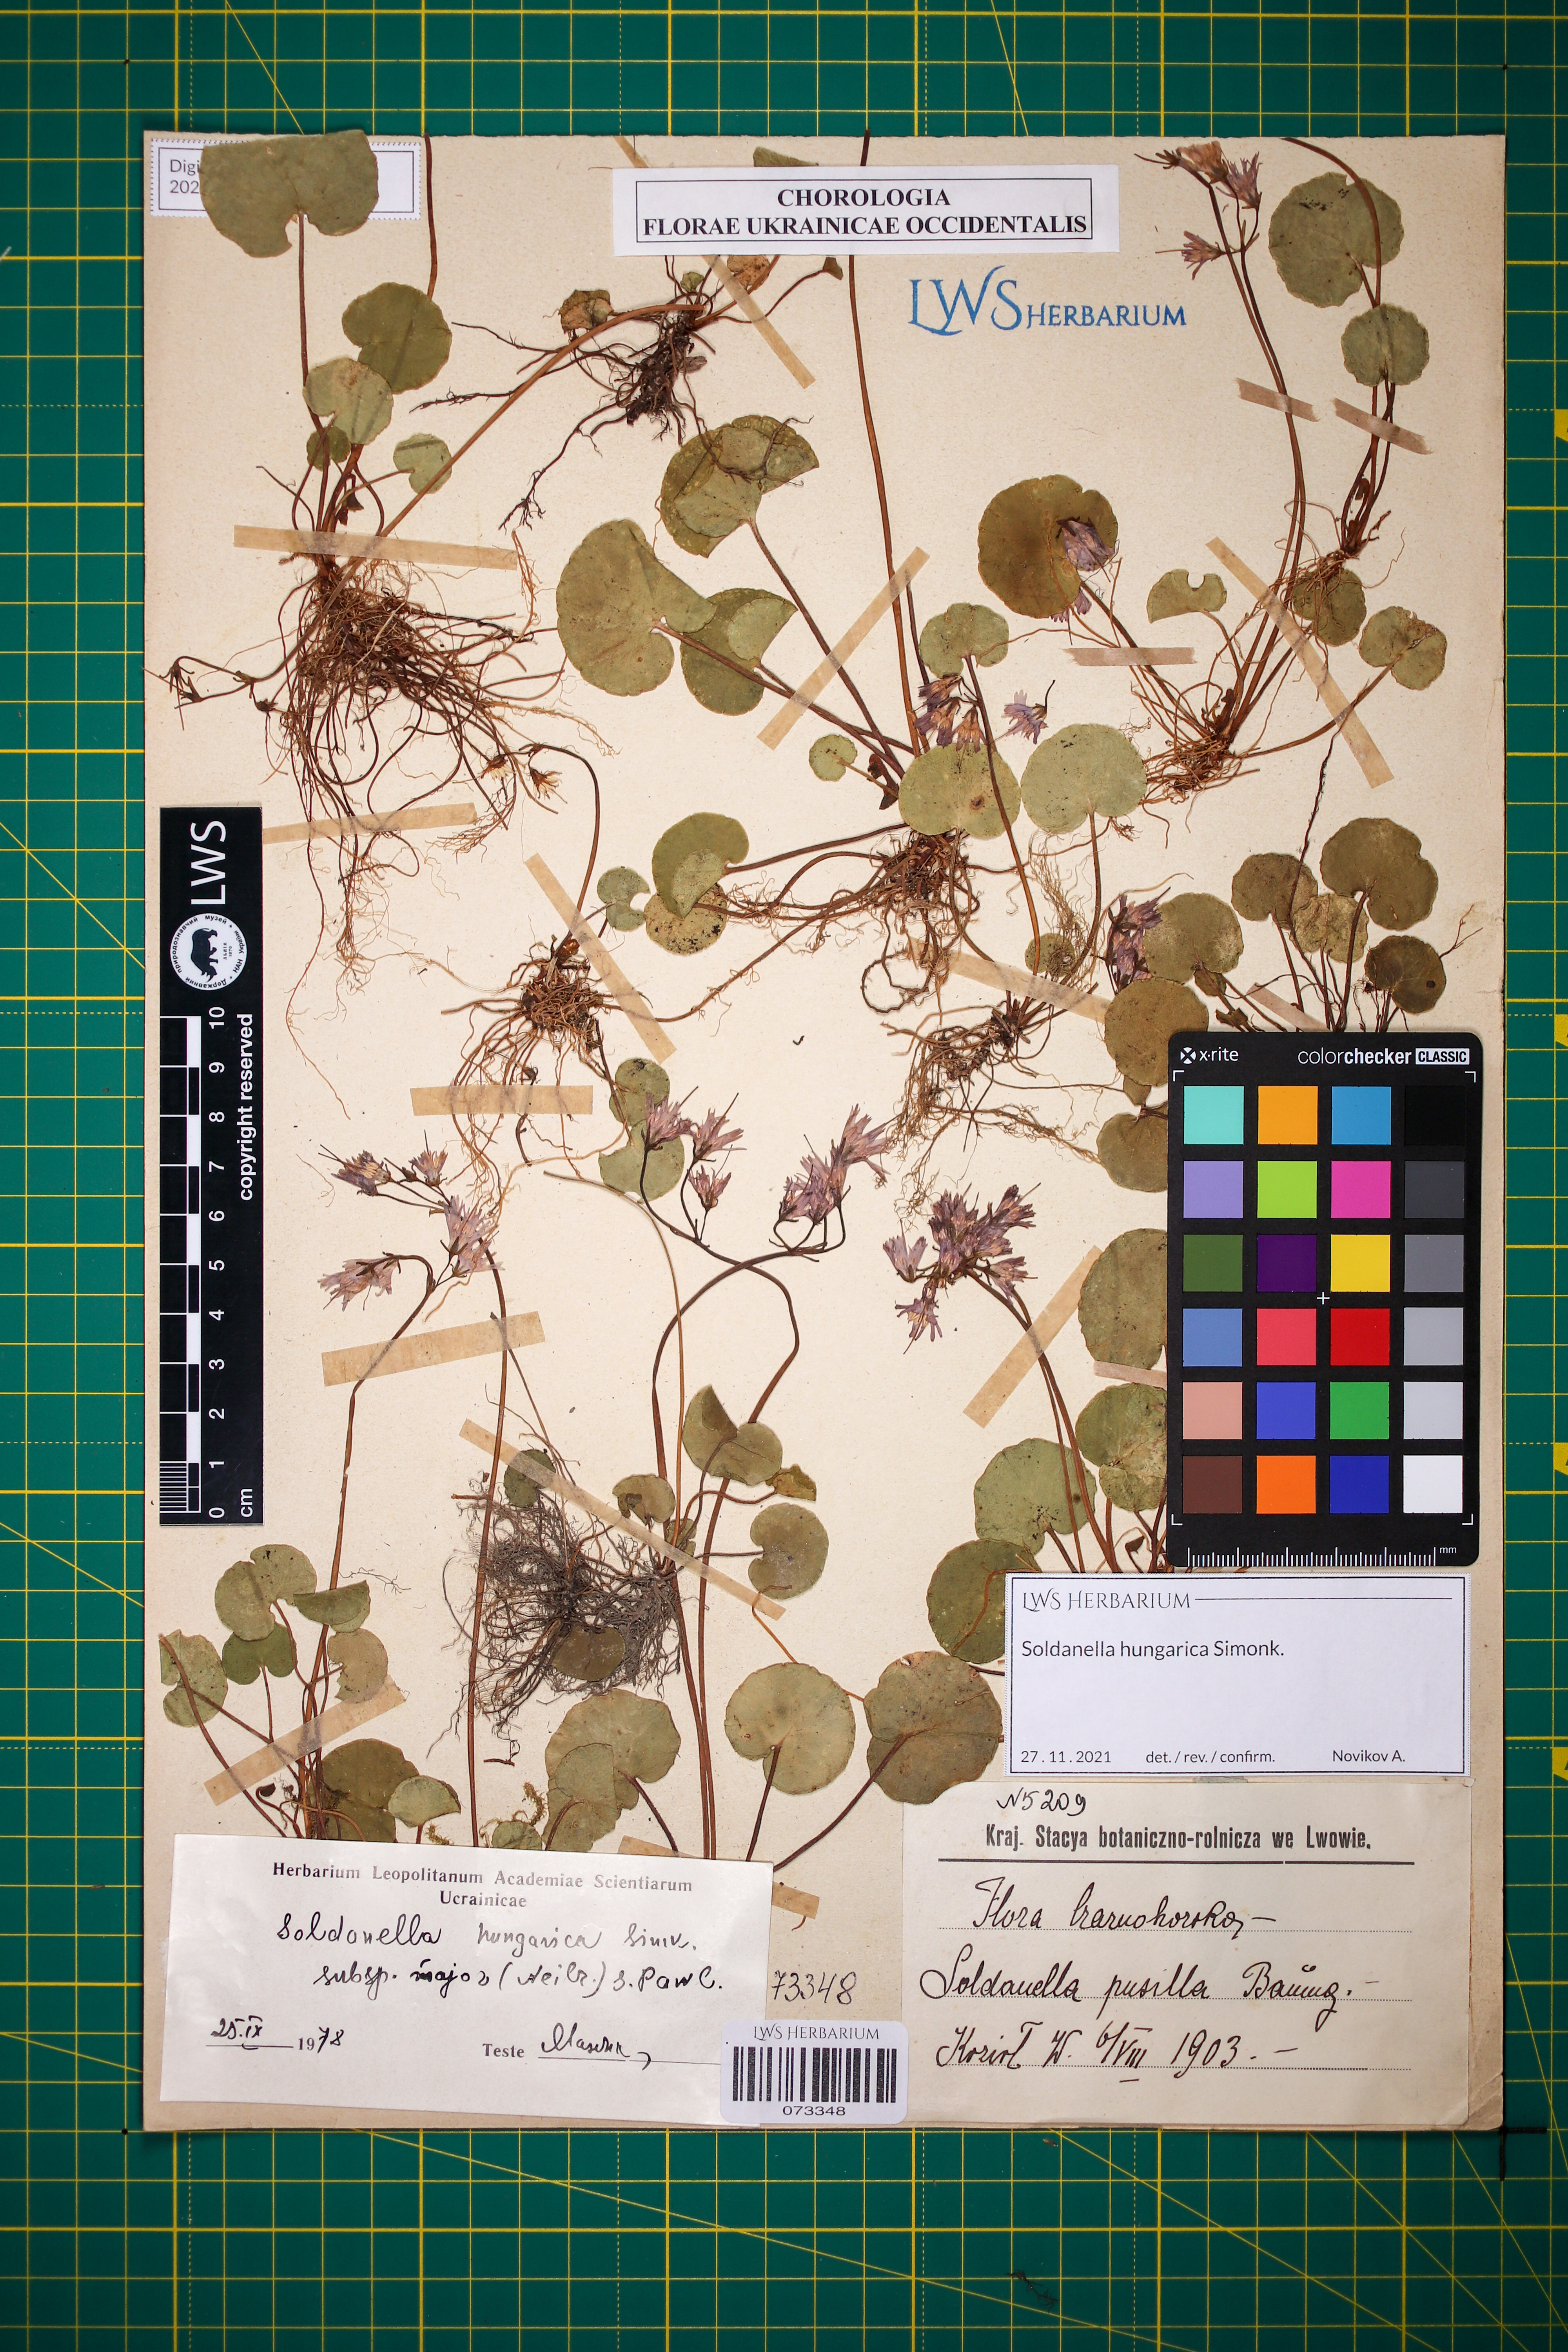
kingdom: Plantae
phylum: Tracheophyta
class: Magnoliopsida
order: Ericales
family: Primulaceae
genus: Soldanella
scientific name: Soldanella hungarica
